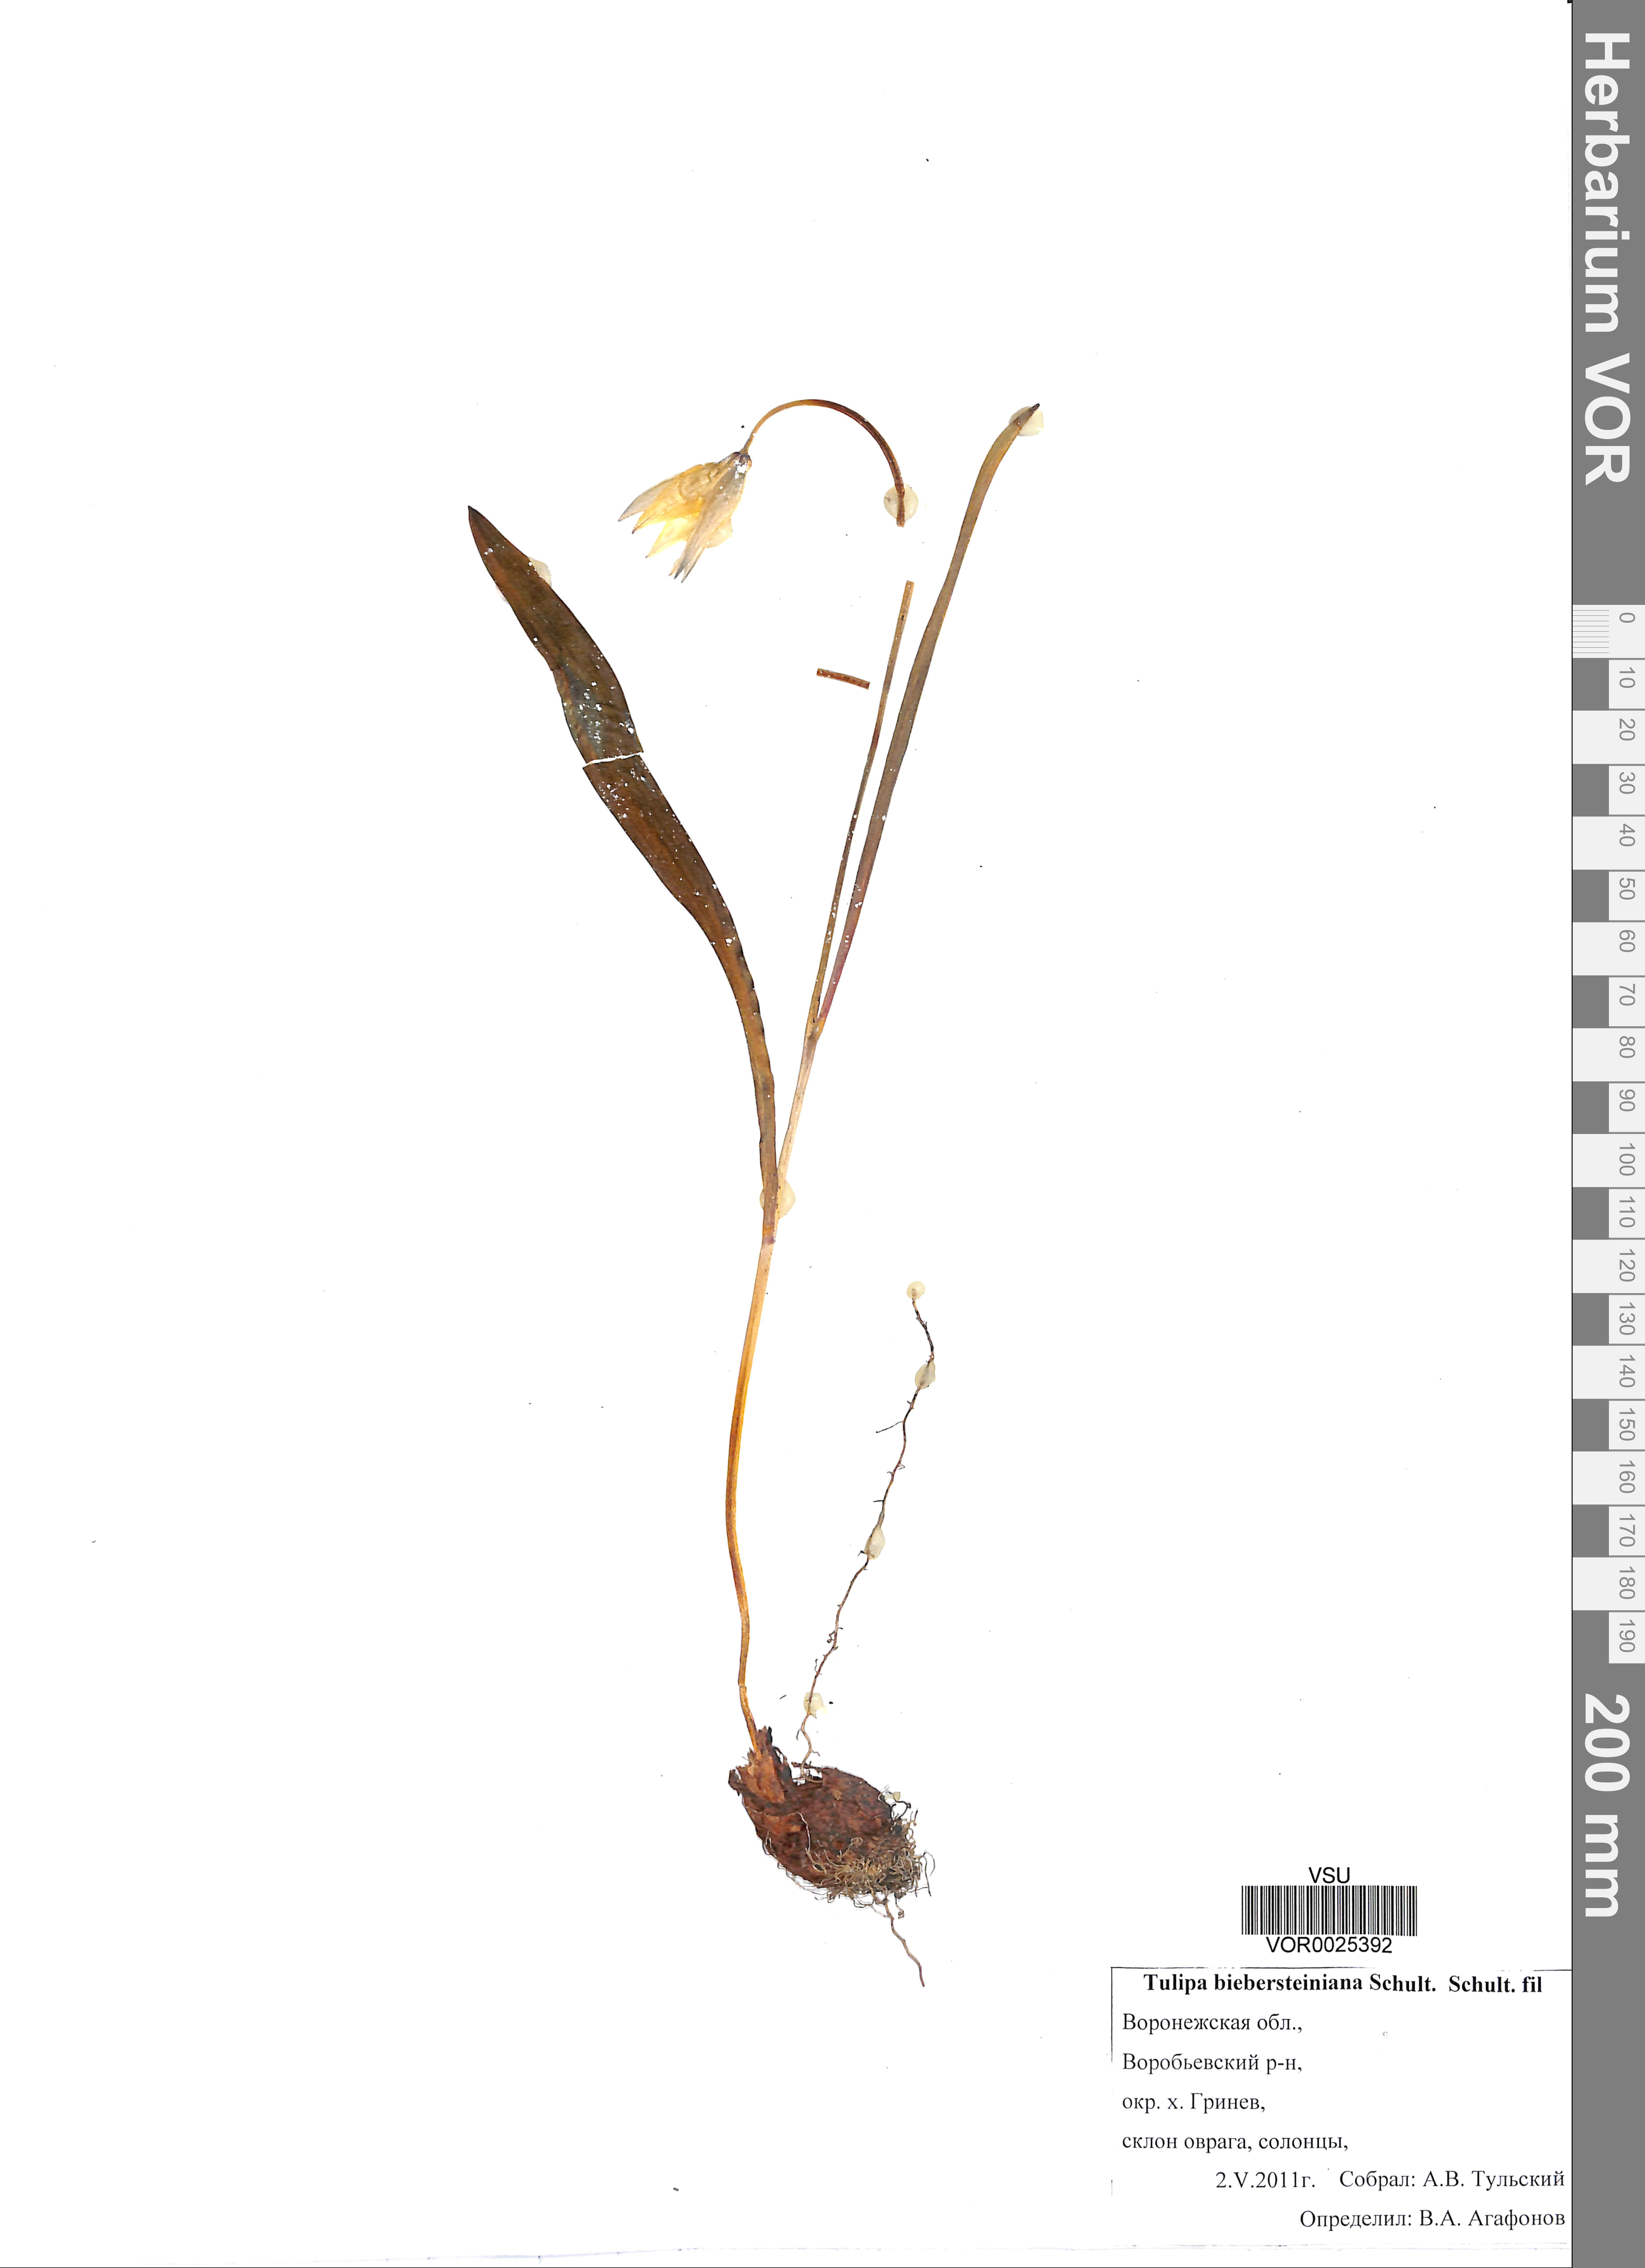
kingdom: Plantae
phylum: Tracheophyta
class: Liliopsida
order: Liliales
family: Liliaceae
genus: Tulipa
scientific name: Tulipa sylvestris
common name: Wild tulip
